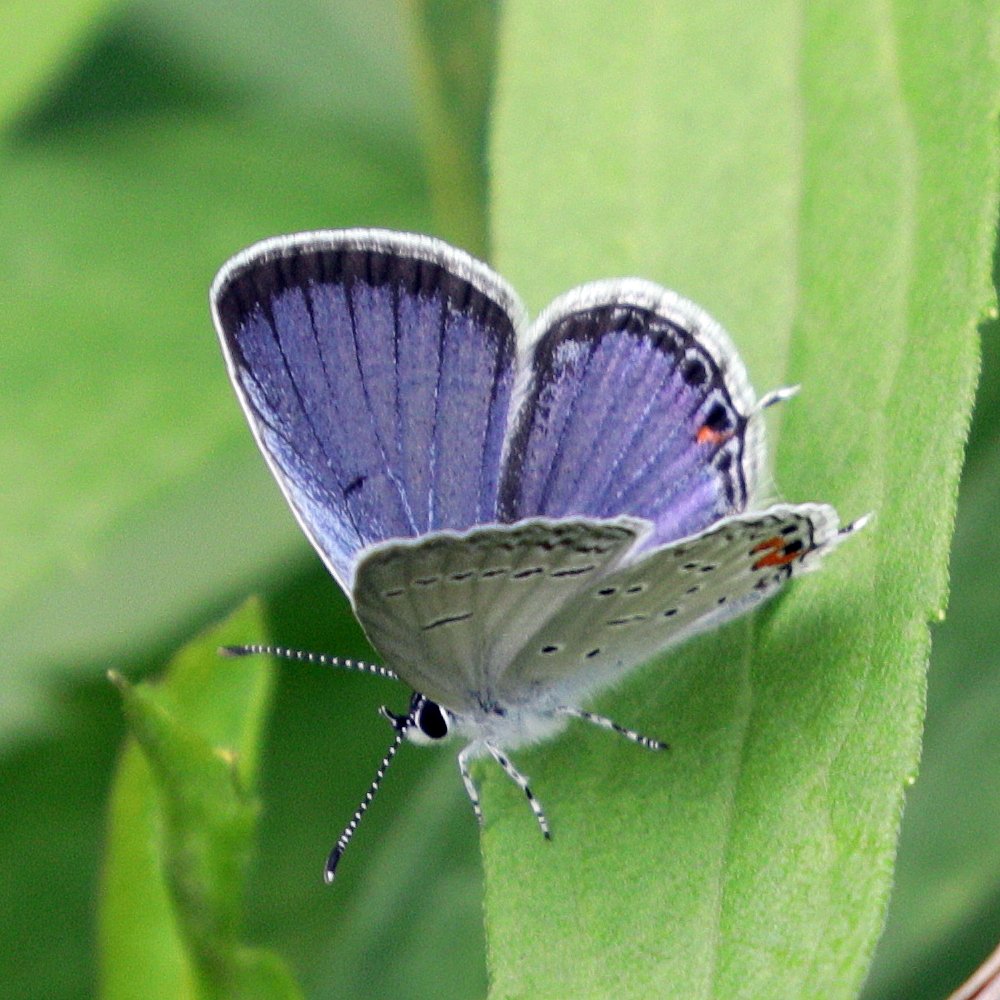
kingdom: Animalia
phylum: Arthropoda
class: Insecta
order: Lepidoptera
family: Lycaenidae
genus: Elkalyce
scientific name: Elkalyce comyntas
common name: Eastern Tailed-Blue
